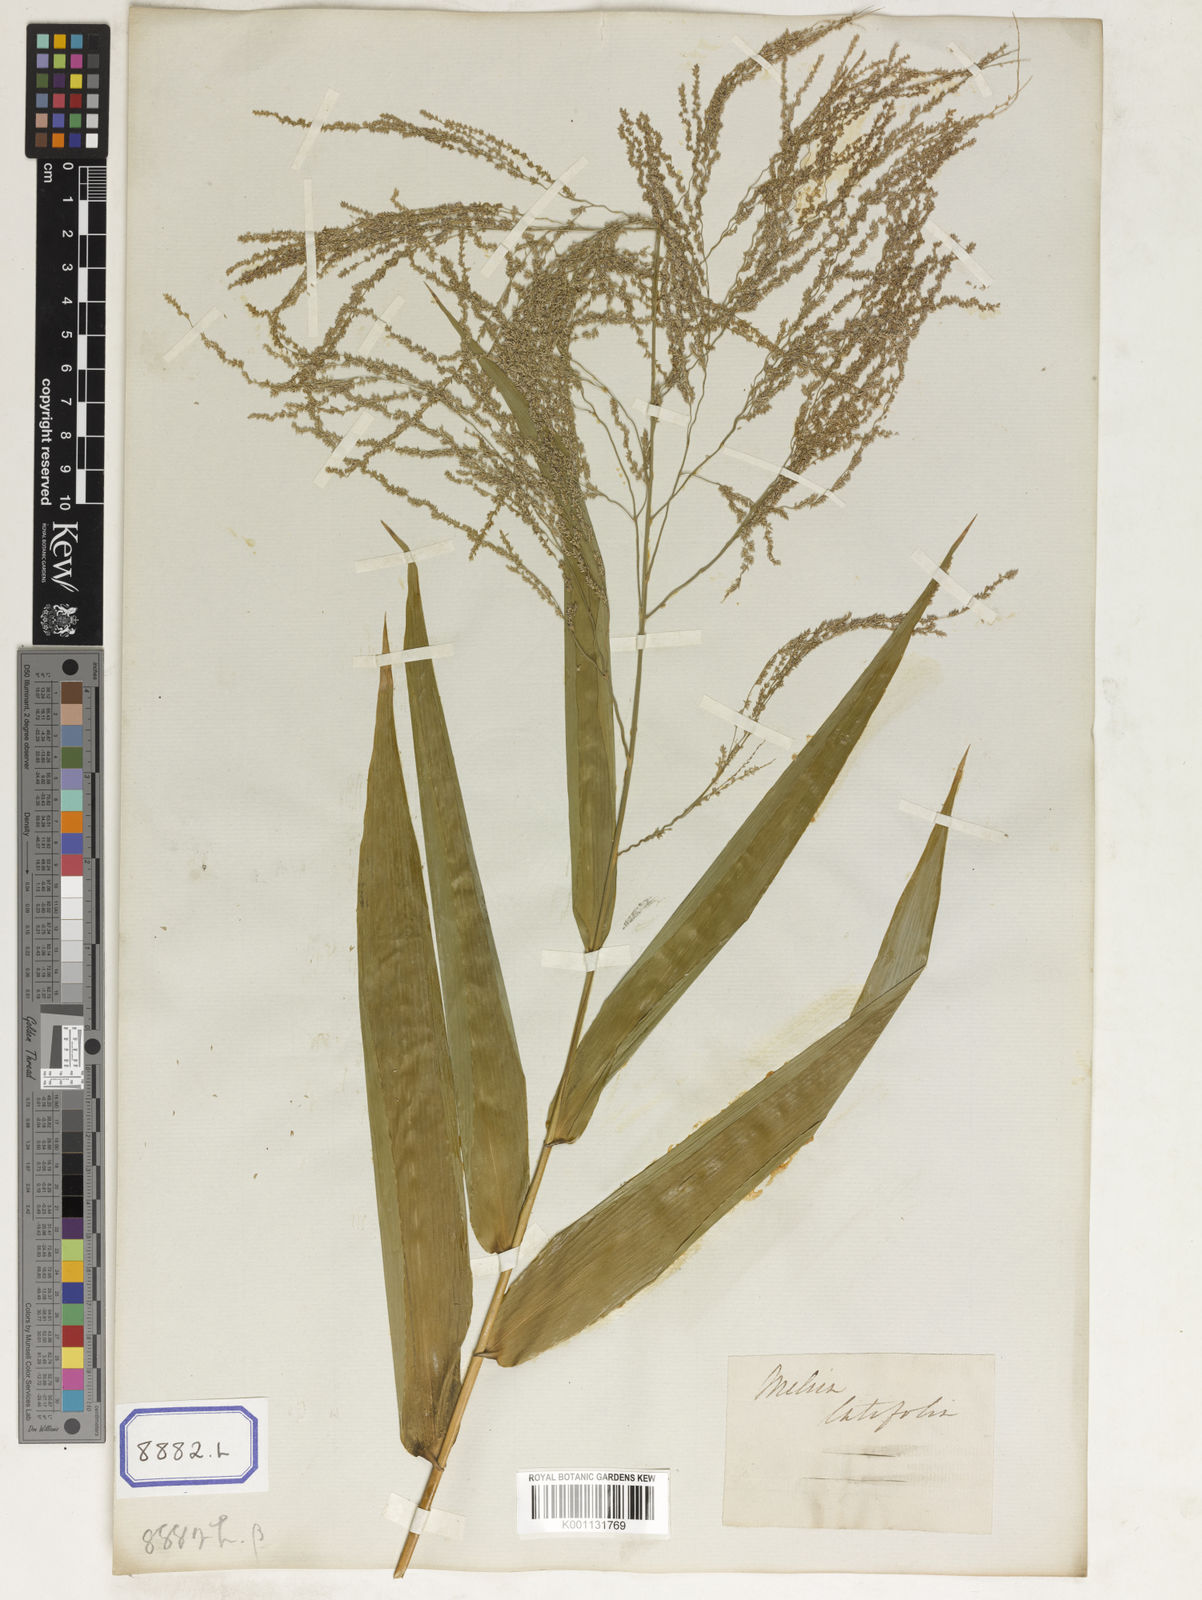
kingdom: Plantae
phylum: Tracheophyta
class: Liliopsida
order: Poales
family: Poaceae
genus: Sporobolus
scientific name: Sporobolus
